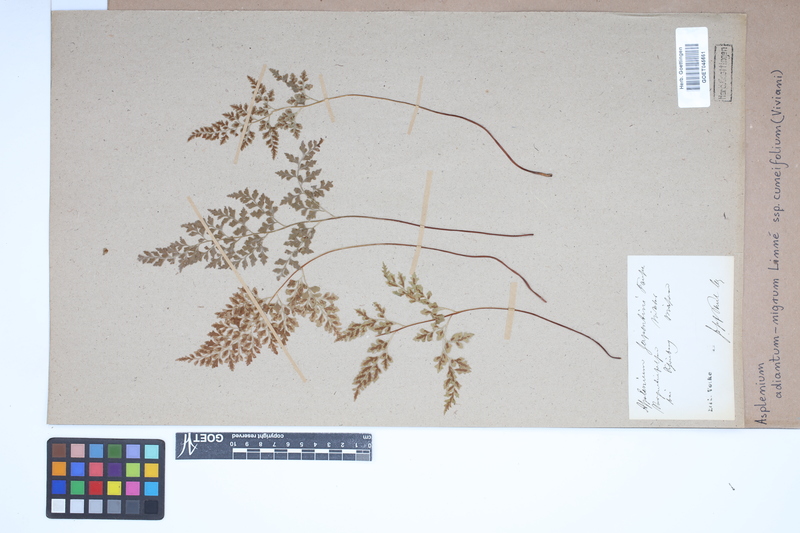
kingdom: Plantae
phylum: Tracheophyta
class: Polypodiopsida
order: Polypodiales
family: Aspleniaceae
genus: Asplenium
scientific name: Asplenium cuneifolium
